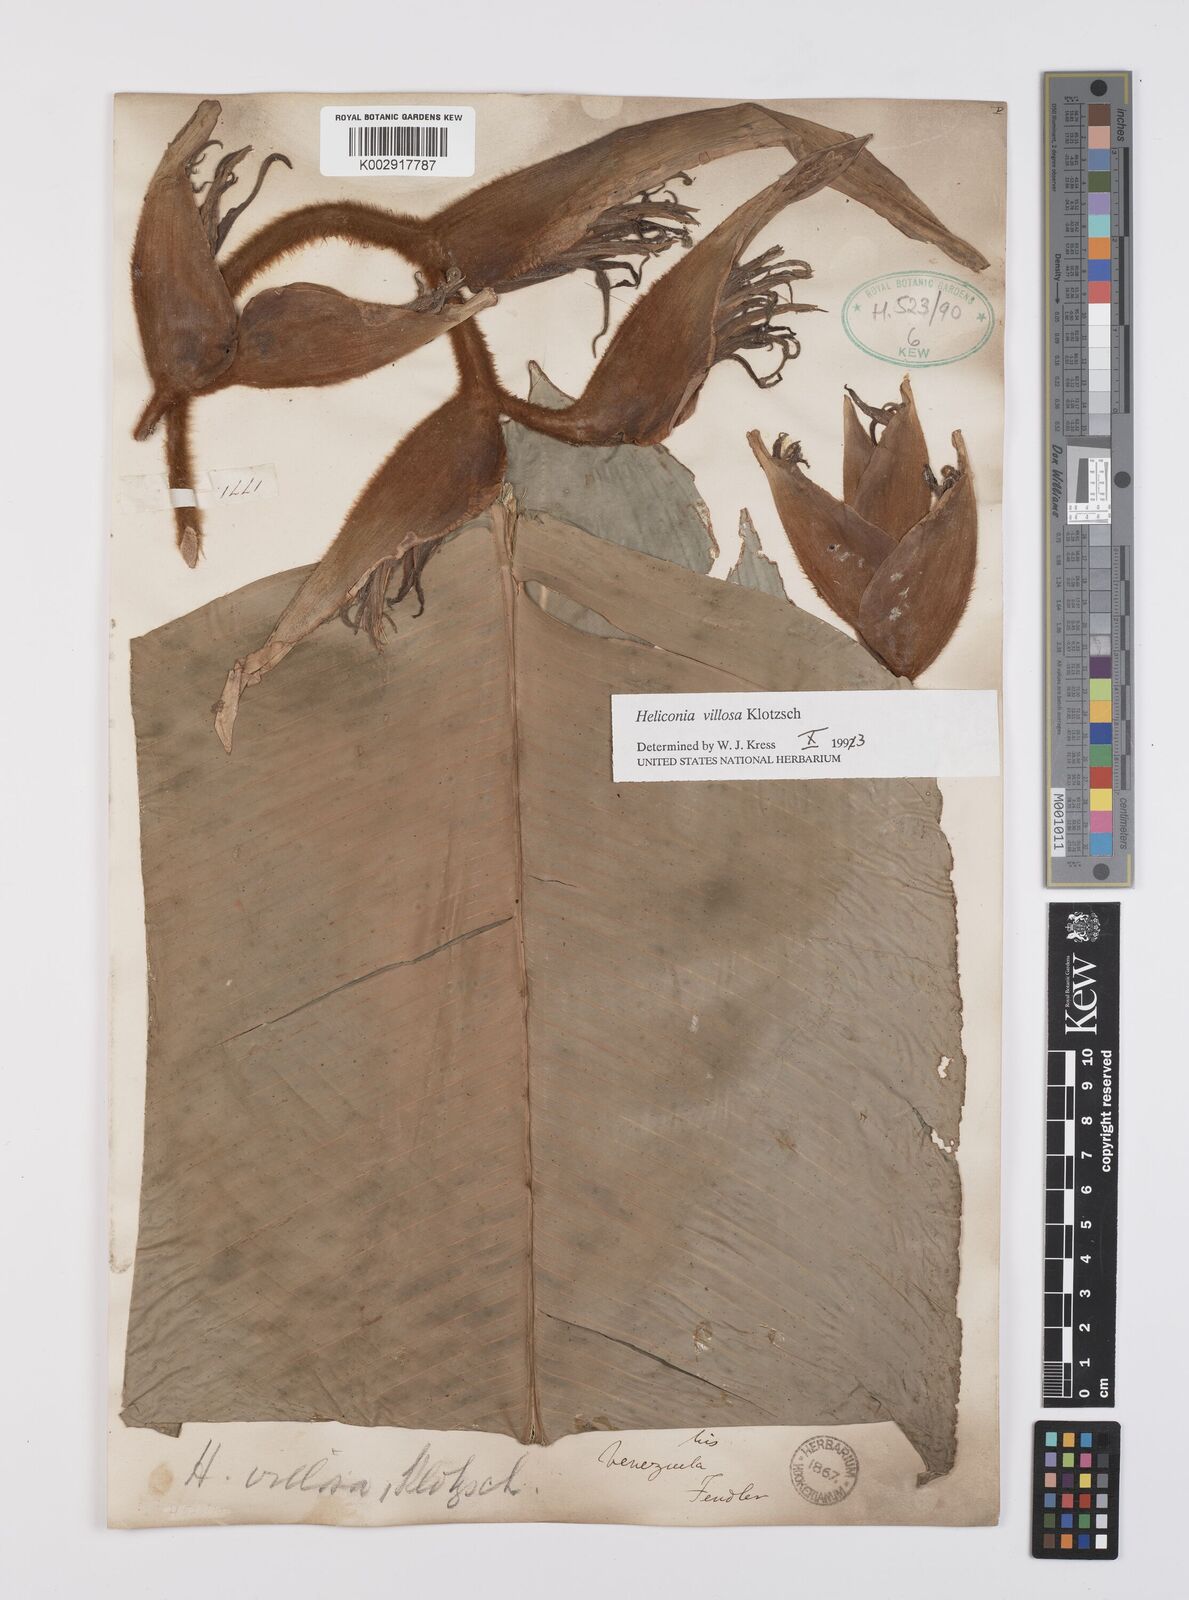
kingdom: Plantae
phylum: Tracheophyta
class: Liliopsida
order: Zingiberales
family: Heliconiaceae
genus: Heliconia
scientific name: Heliconia villosa
